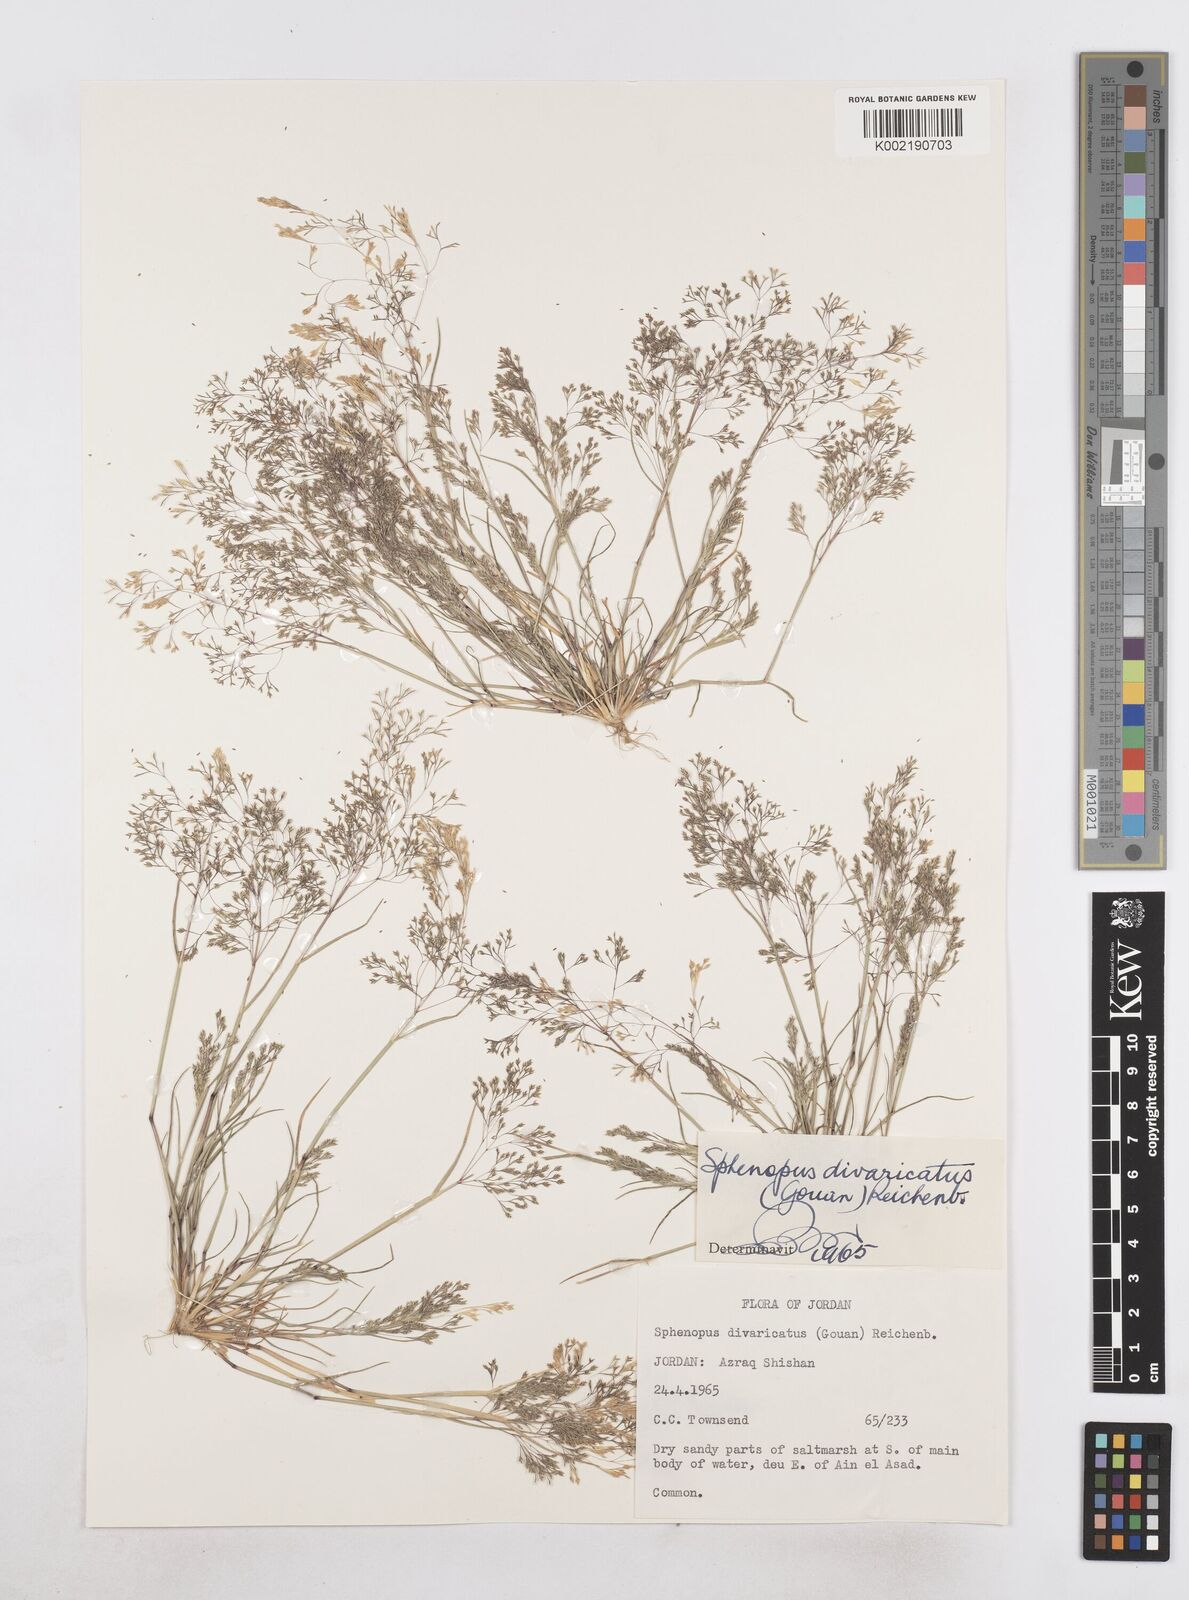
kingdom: Plantae
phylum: Tracheophyta
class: Liliopsida
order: Poales
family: Poaceae
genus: Sphenopus
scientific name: Sphenopus divaricatus
